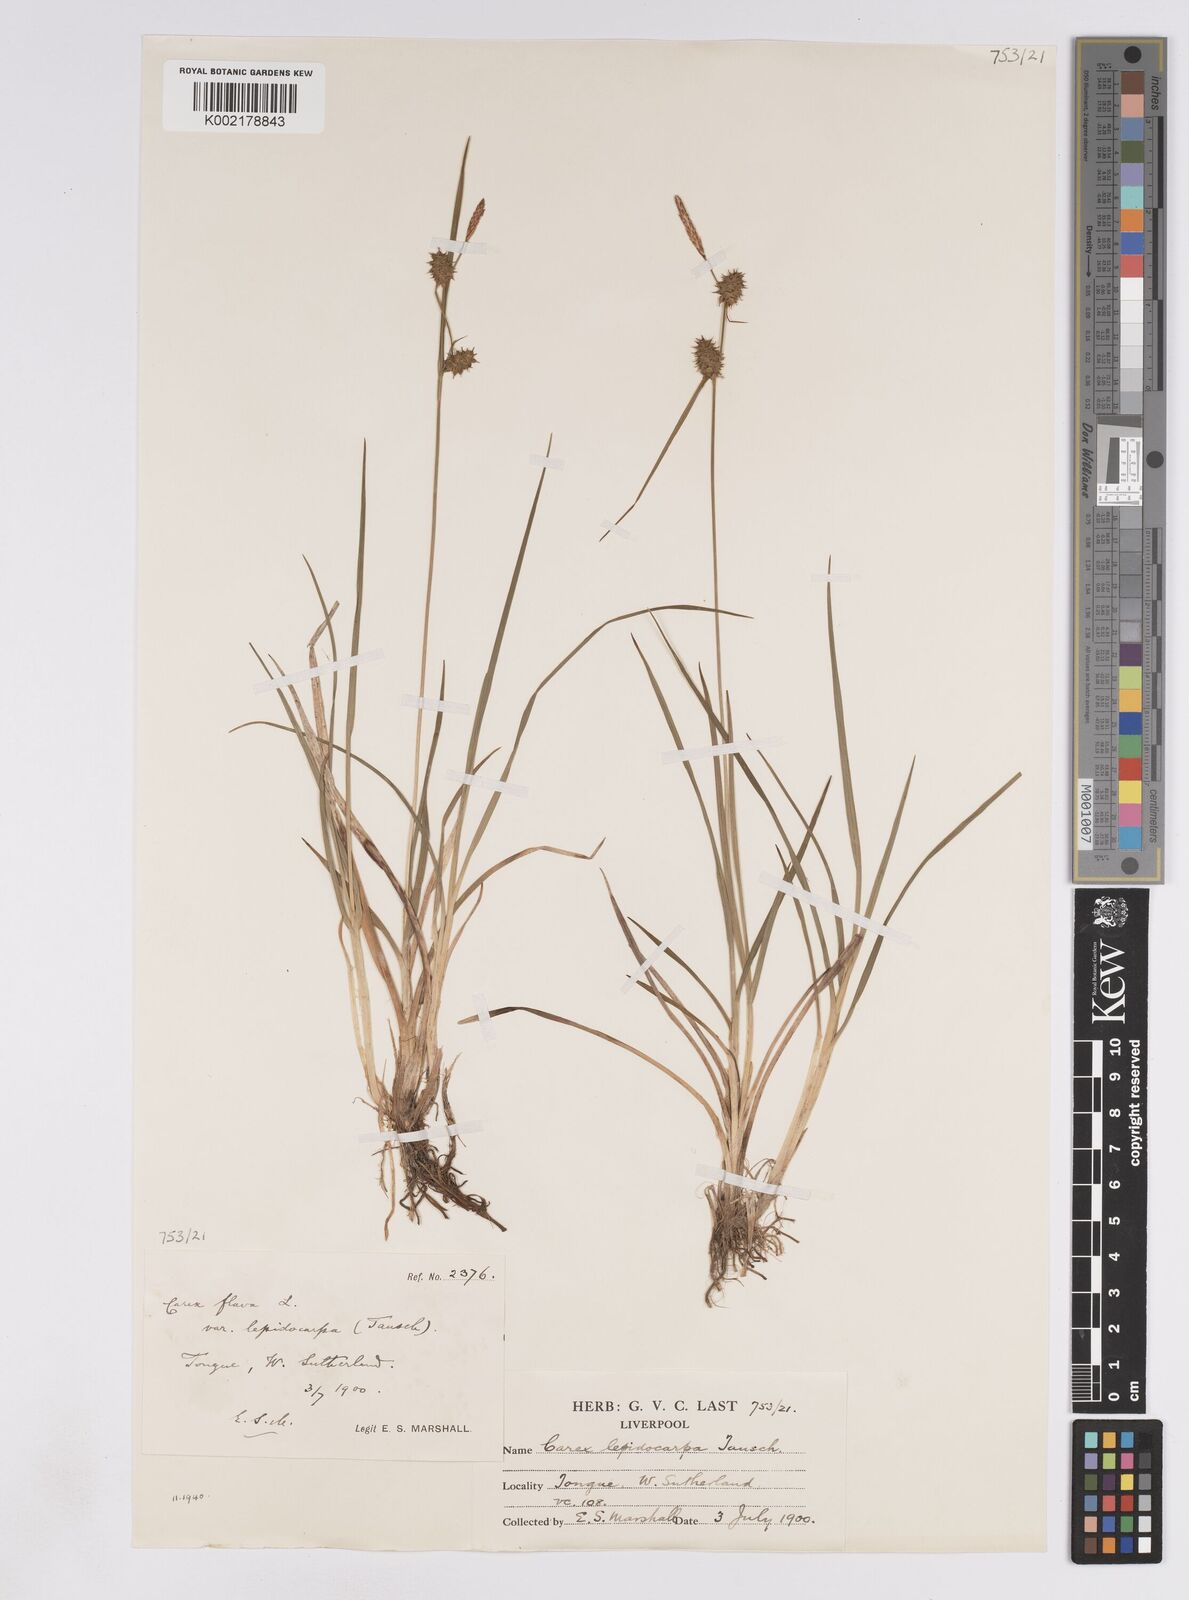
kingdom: Plantae
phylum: Tracheophyta
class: Liliopsida
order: Poales
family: Cyperaceae
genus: Carex
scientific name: Carex lepidocarpa
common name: Long-stalked yellow-sedge
